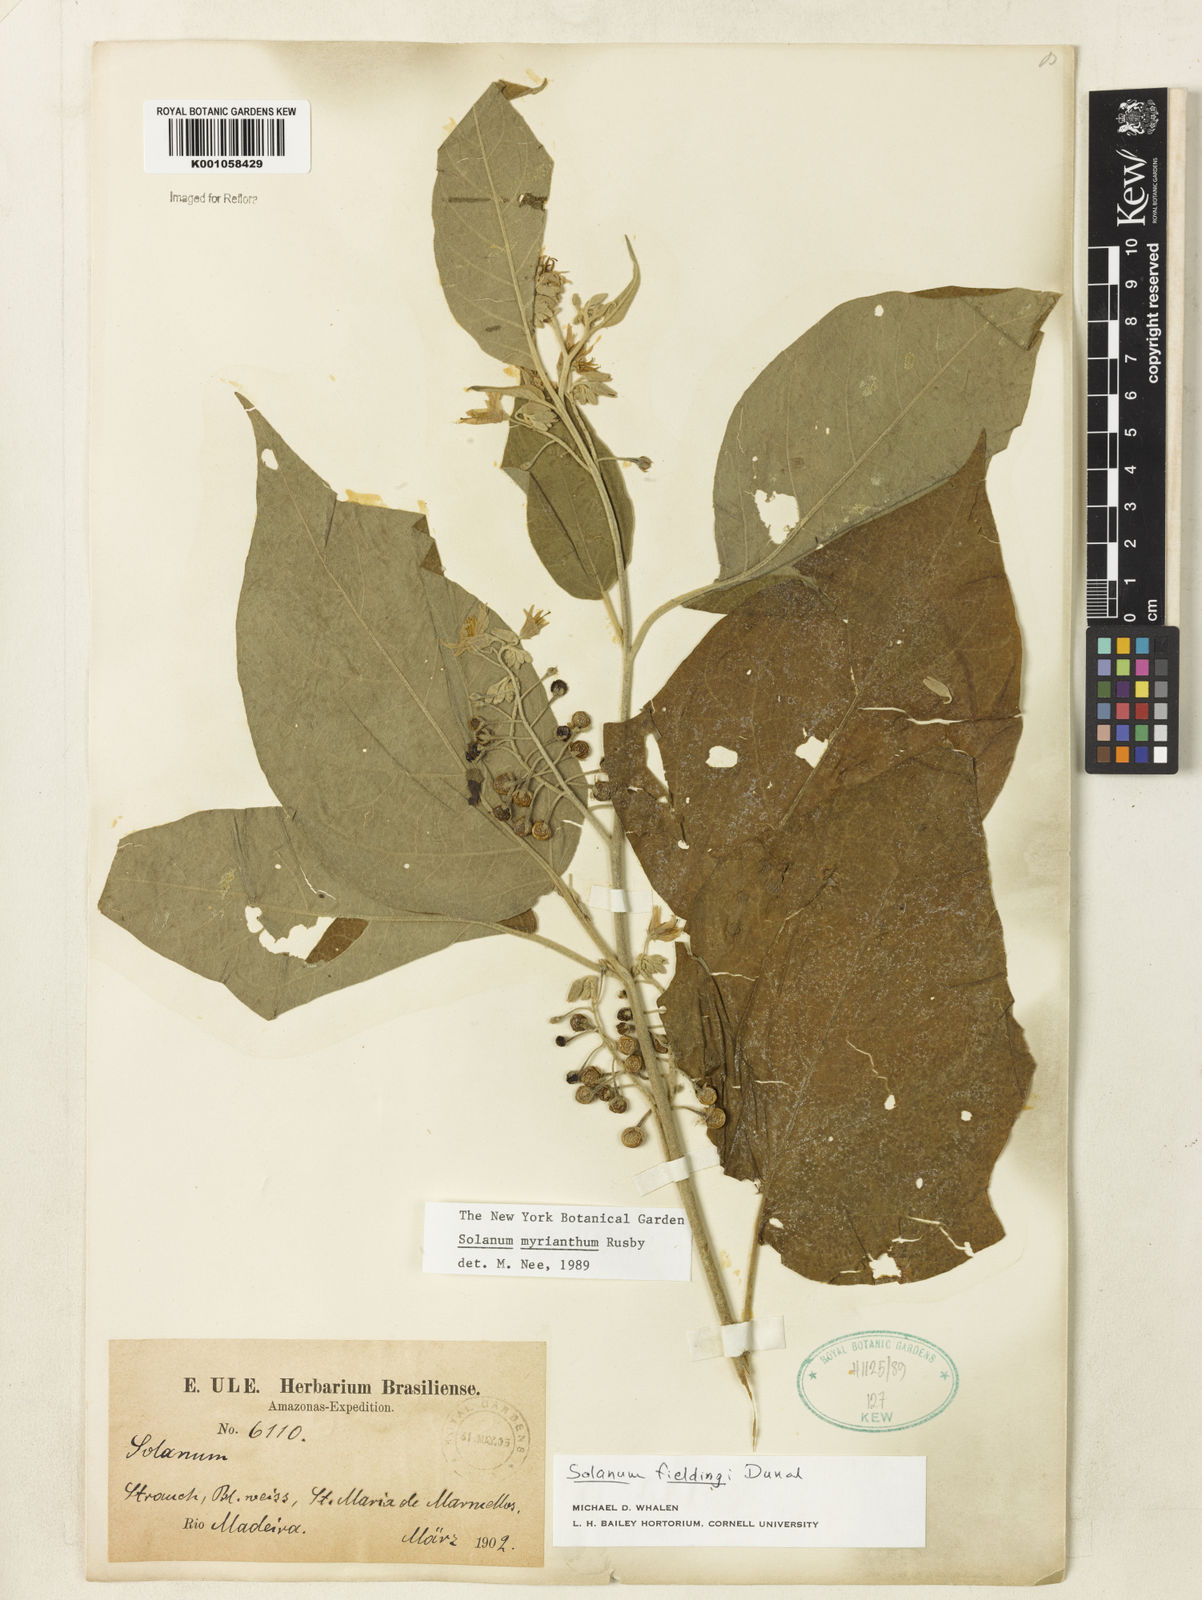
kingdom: Plantae
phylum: Tracheophyta
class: Magnoliopsida
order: Solanales
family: Solanaceae
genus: Solanum
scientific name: Solanum
